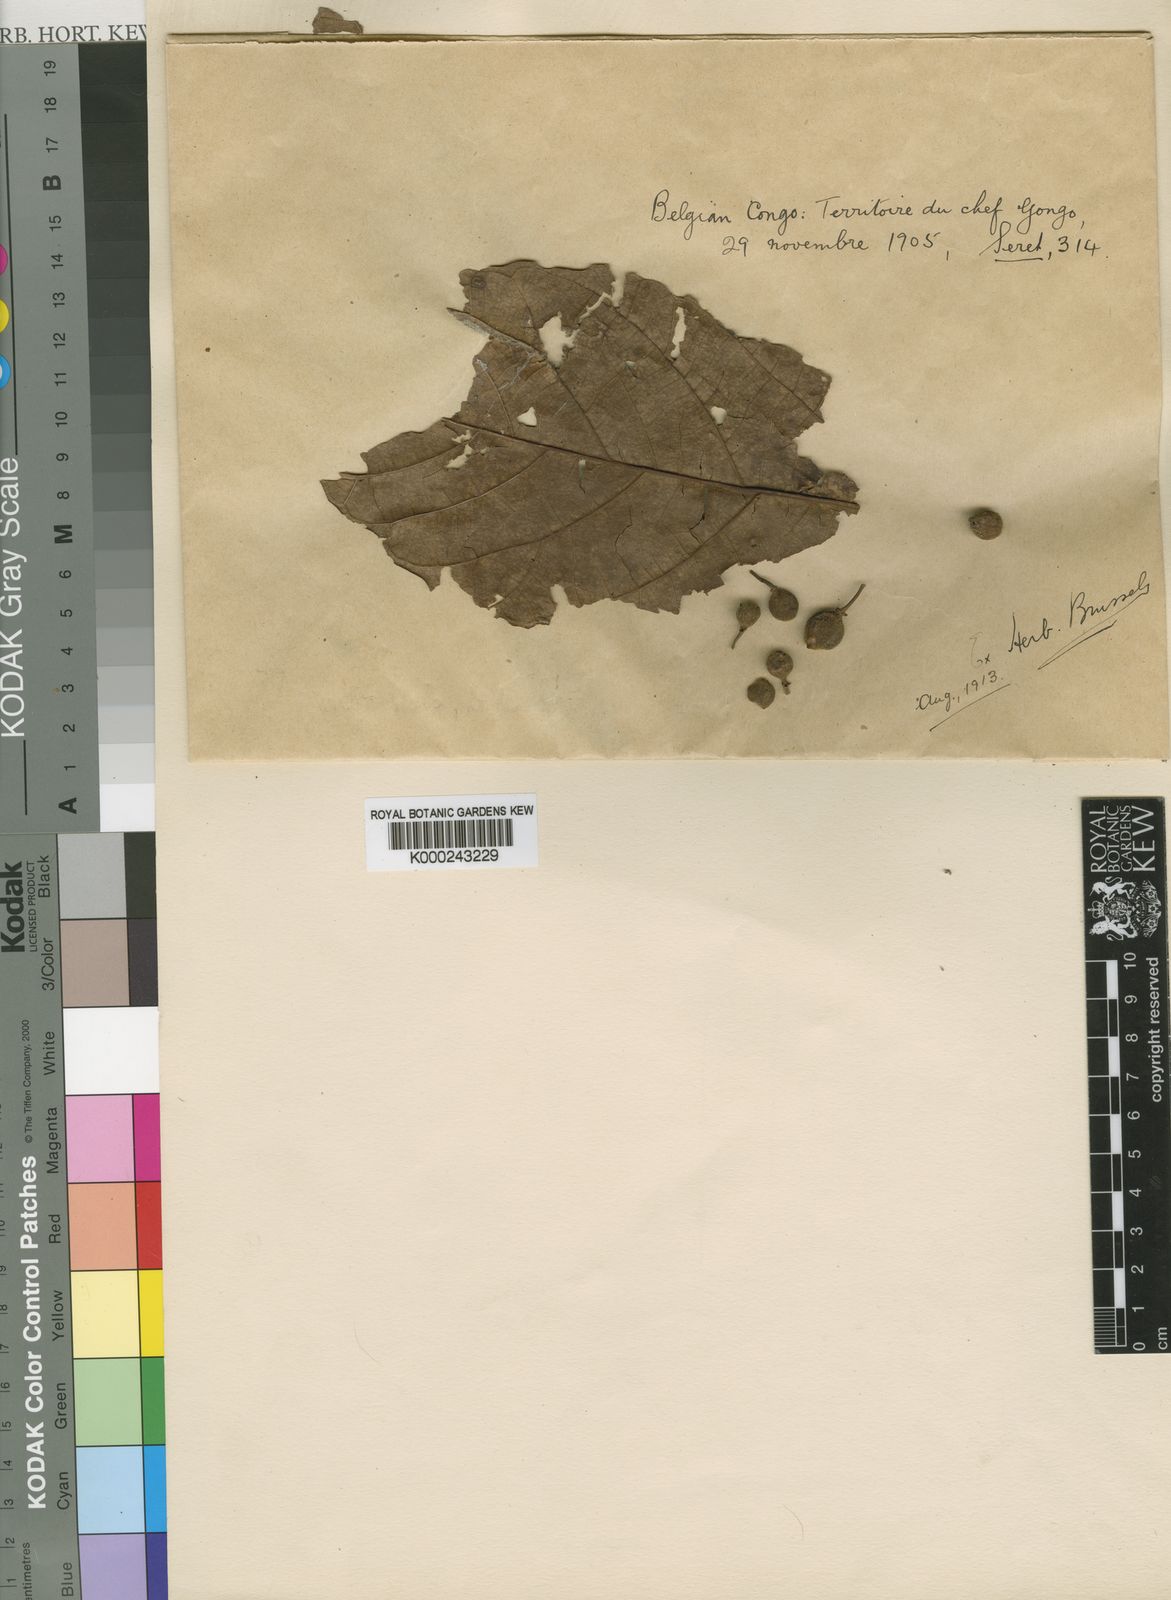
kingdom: Plantae
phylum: Tracheophyta
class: Magnoliopsida
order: Rosales
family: Moraceae
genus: Ficus
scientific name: Ficus sur
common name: Cape fig
